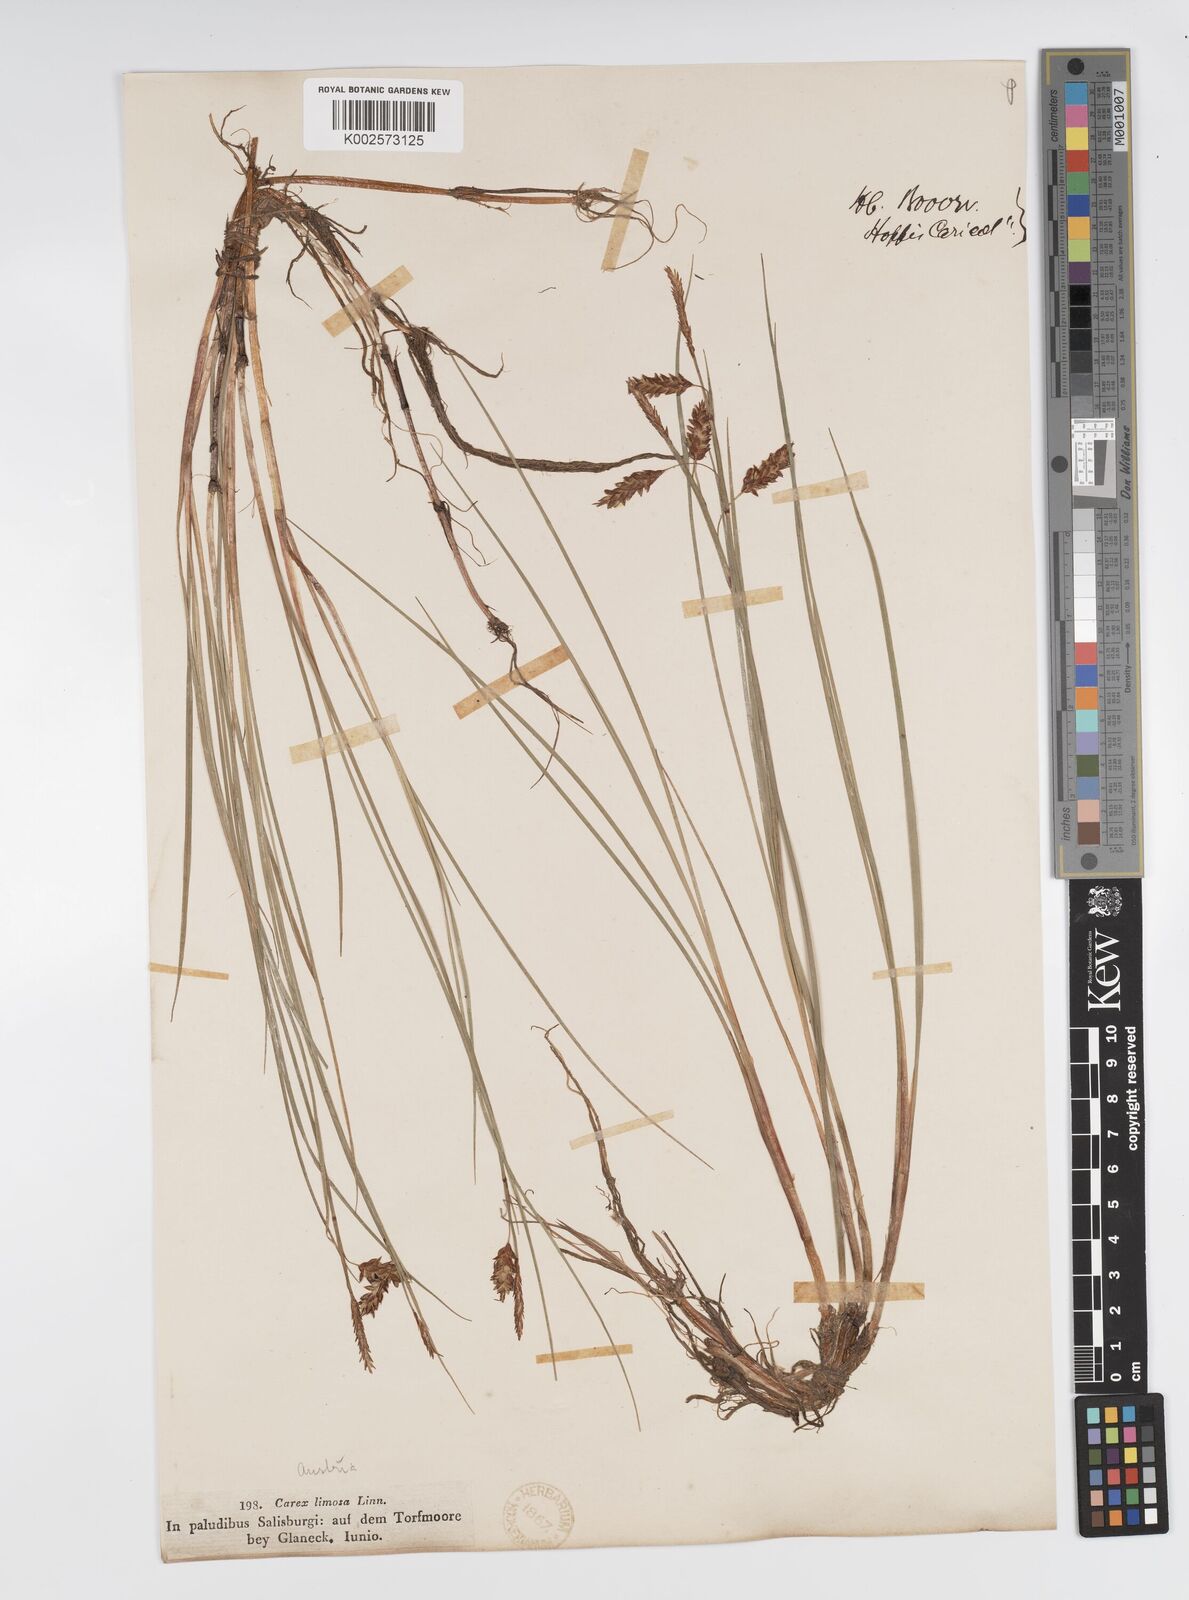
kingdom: Plantae
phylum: Tracheophyta
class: Liliopsida
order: Poales
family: Cyperaceae
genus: Carex
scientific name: Carex limosa
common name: Bog sedge
